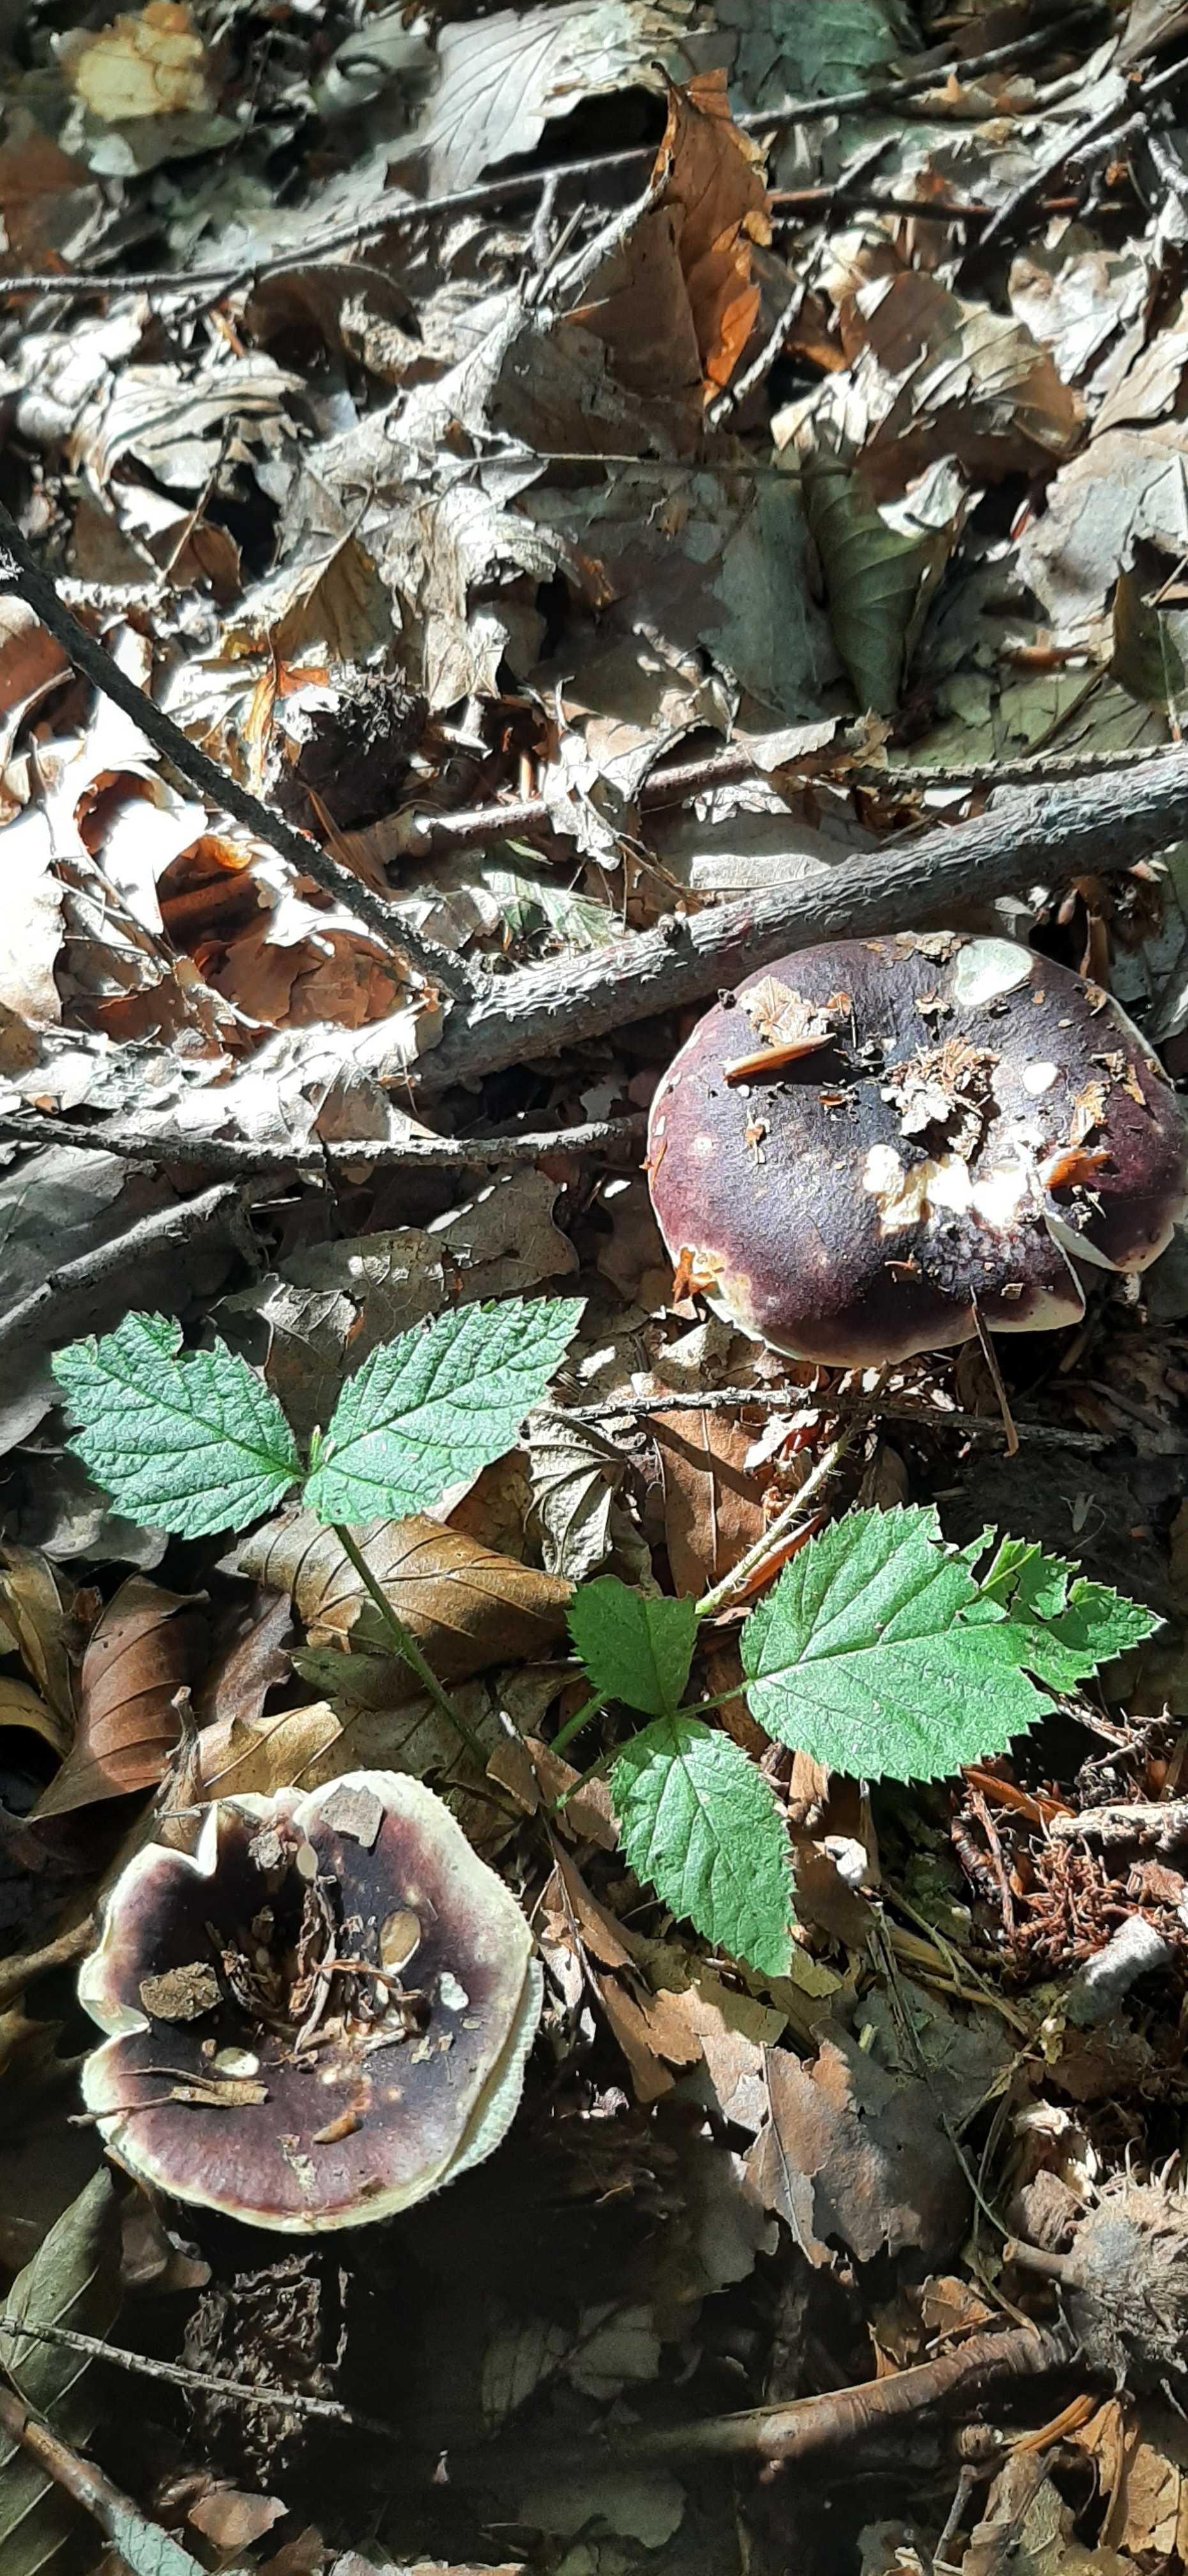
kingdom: Fungi
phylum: Basidiomycota
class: Agaricomycetes
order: Russulales
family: Russulaceae
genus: Russula
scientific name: Russula atropurpurea
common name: purpurbroget skørhat
